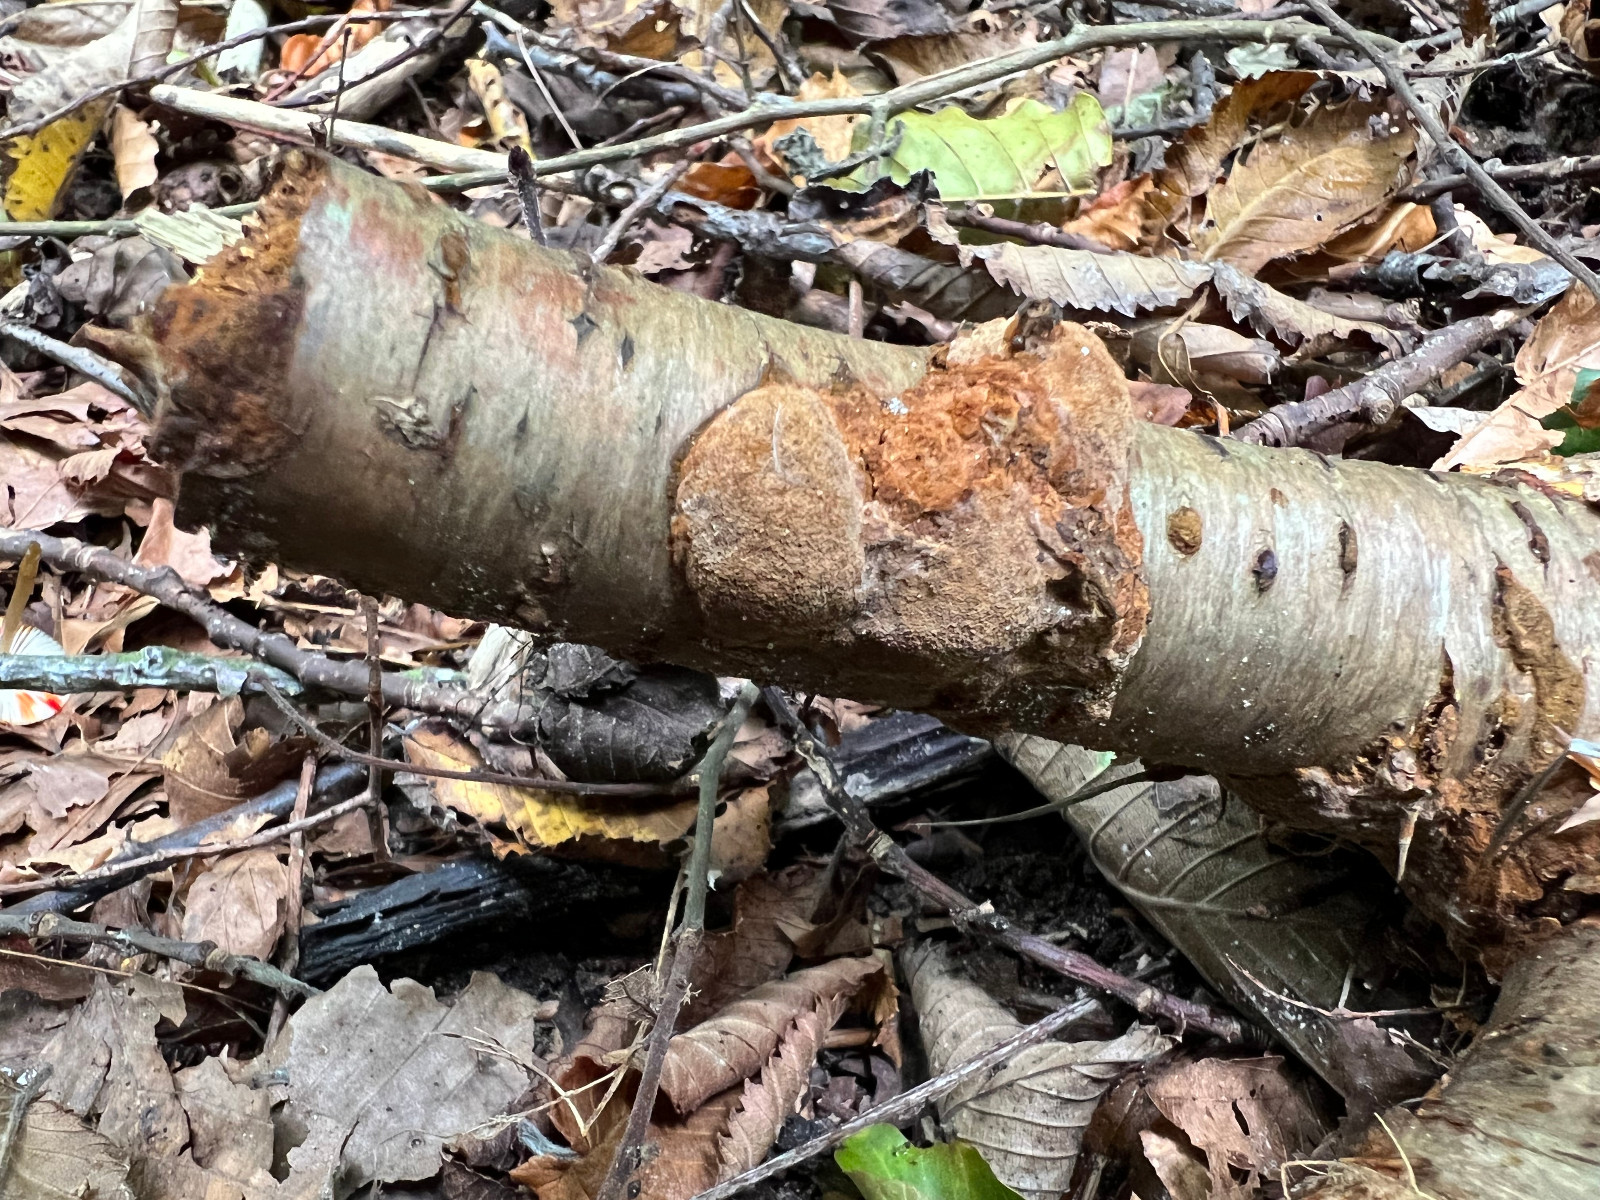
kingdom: Fungi
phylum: Basidiomycota
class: Agaricomycetes
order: Hymenochaetales
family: Hymenochaetaceae
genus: Mensularia
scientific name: Mensularia nodulosa
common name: bøge-spejlporesvamp
